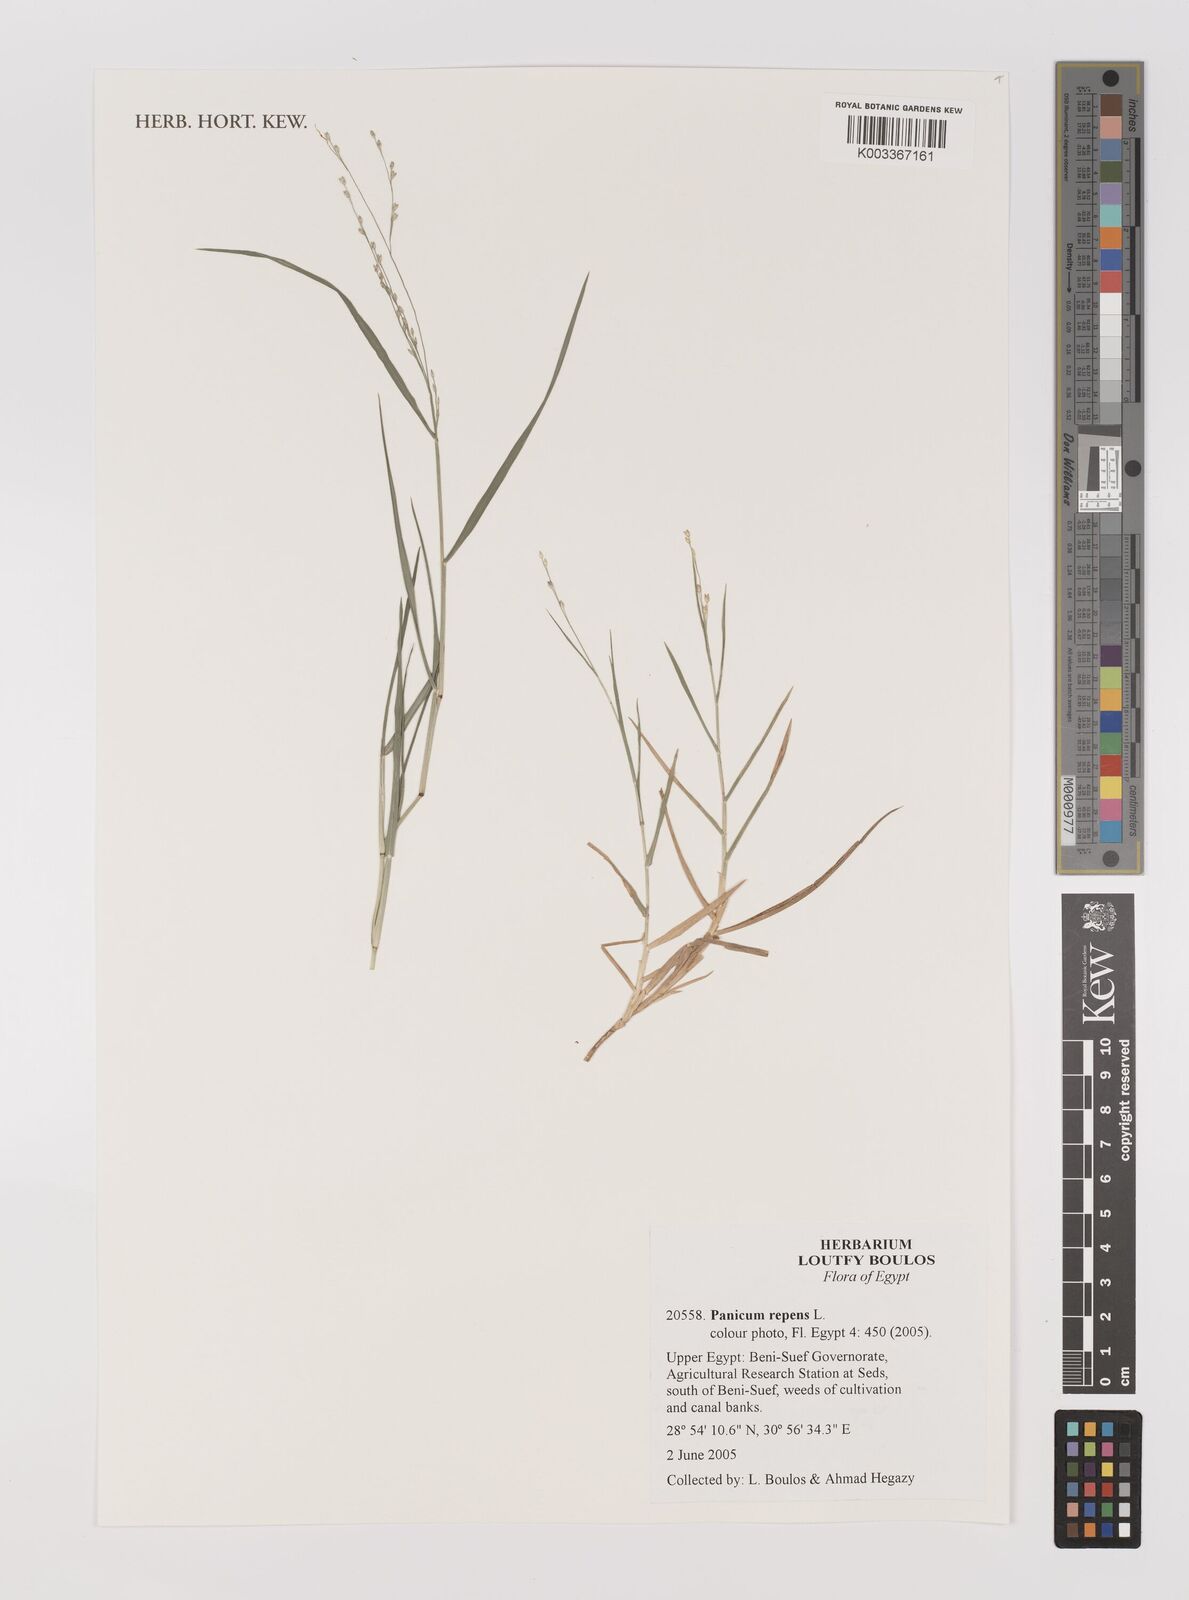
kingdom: Plantae
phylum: Tracheophyta
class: Liliopsida
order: Poales
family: Poaceae
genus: Panicum
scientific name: Panicum repens
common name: Torpedo grass
